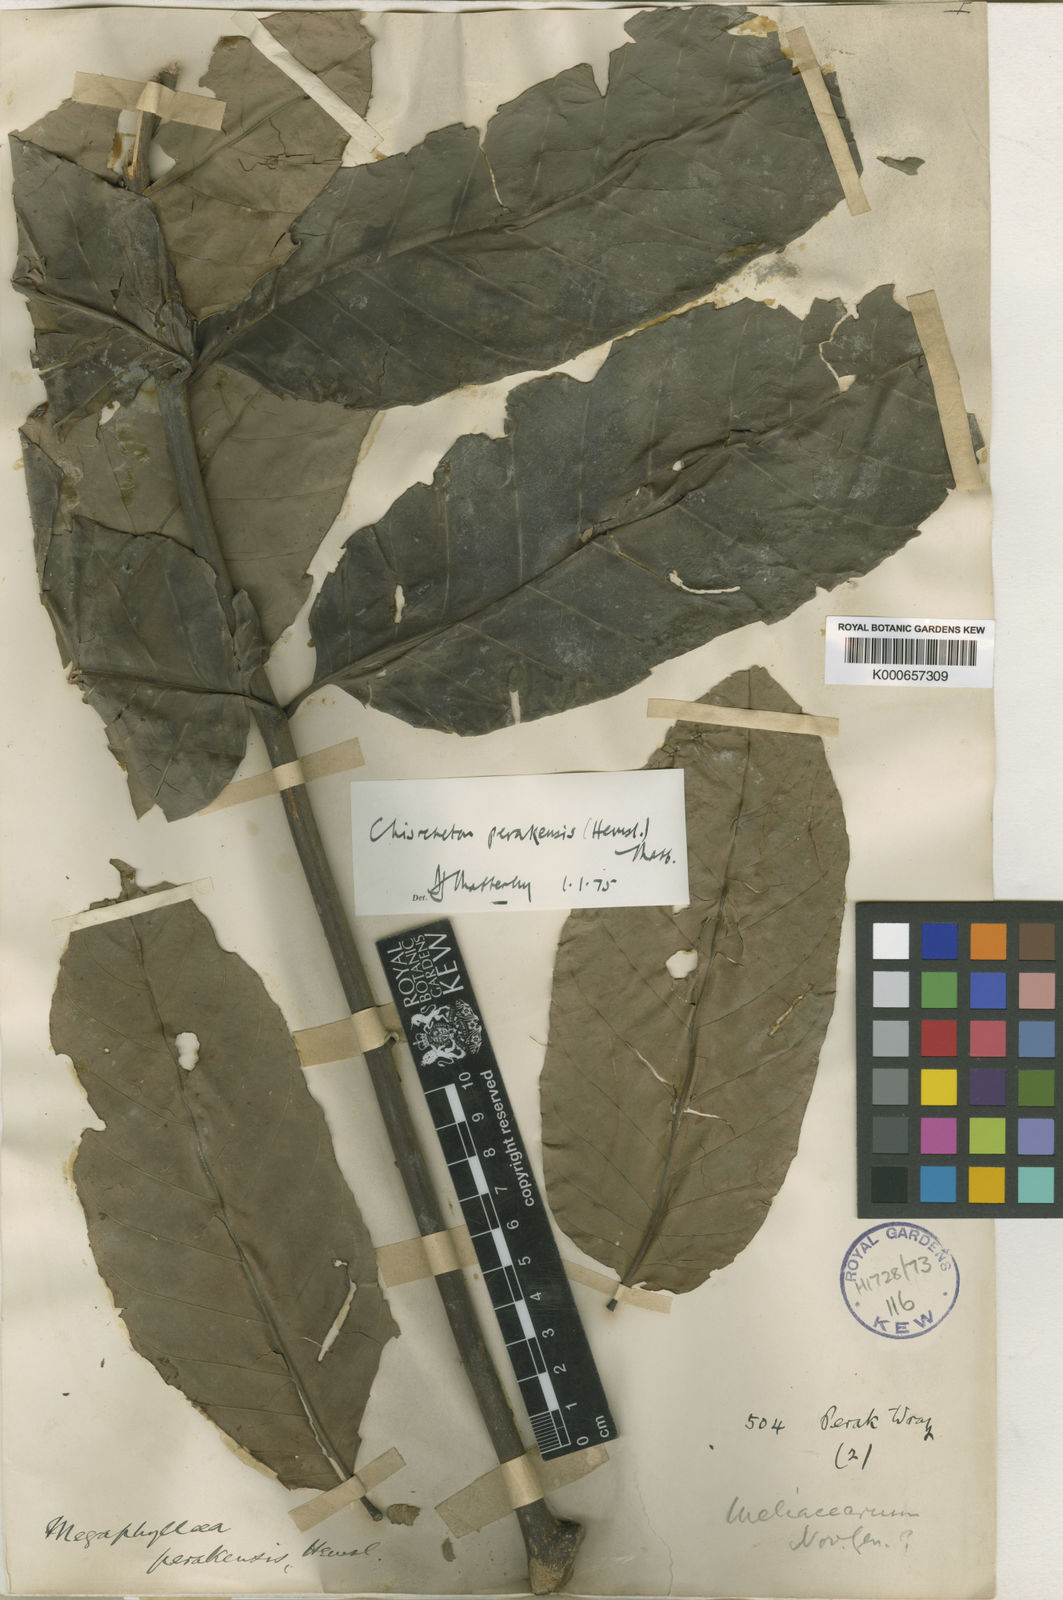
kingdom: Plantae
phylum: Tracheophyta
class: Magnoliopsida
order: Sapindales
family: Meliaceae
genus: Chisocheton
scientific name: Chisocheton perakensis
